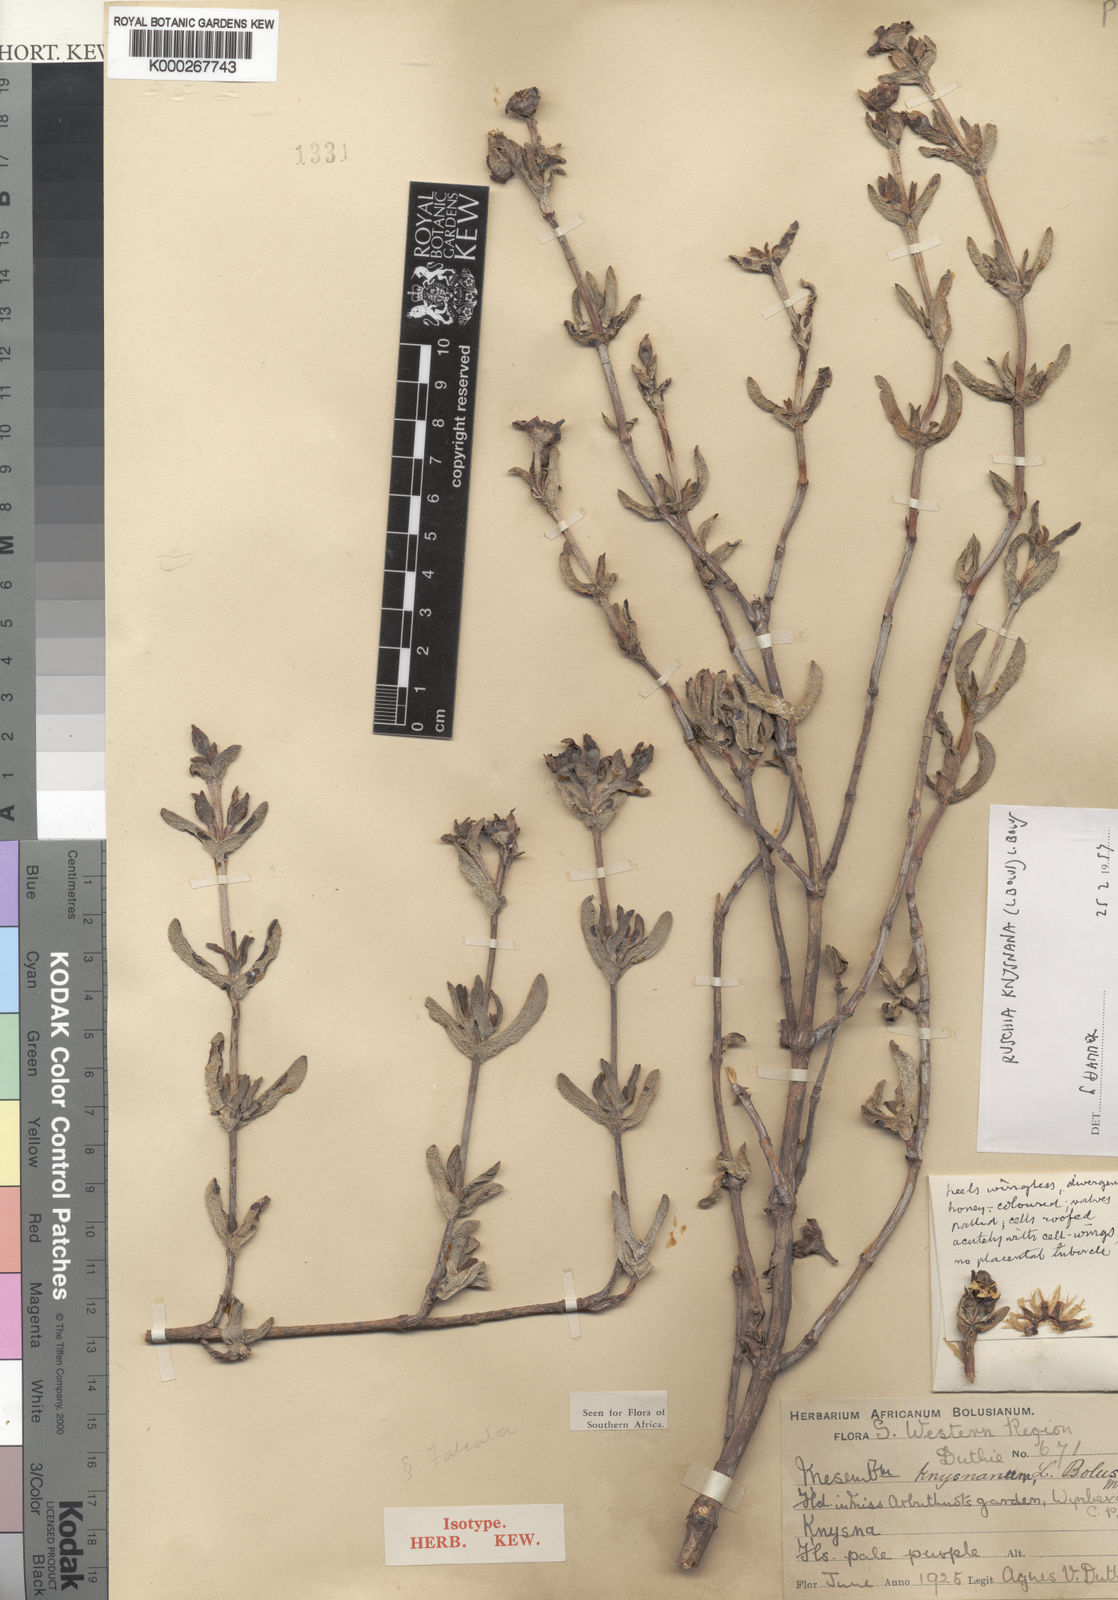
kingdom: Plantae
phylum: Tracheophyta
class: Magnoliopsida
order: Caryophyllales
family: Aizoaceae
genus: Esterhuysenia
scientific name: Esterhuysenia knysnana
